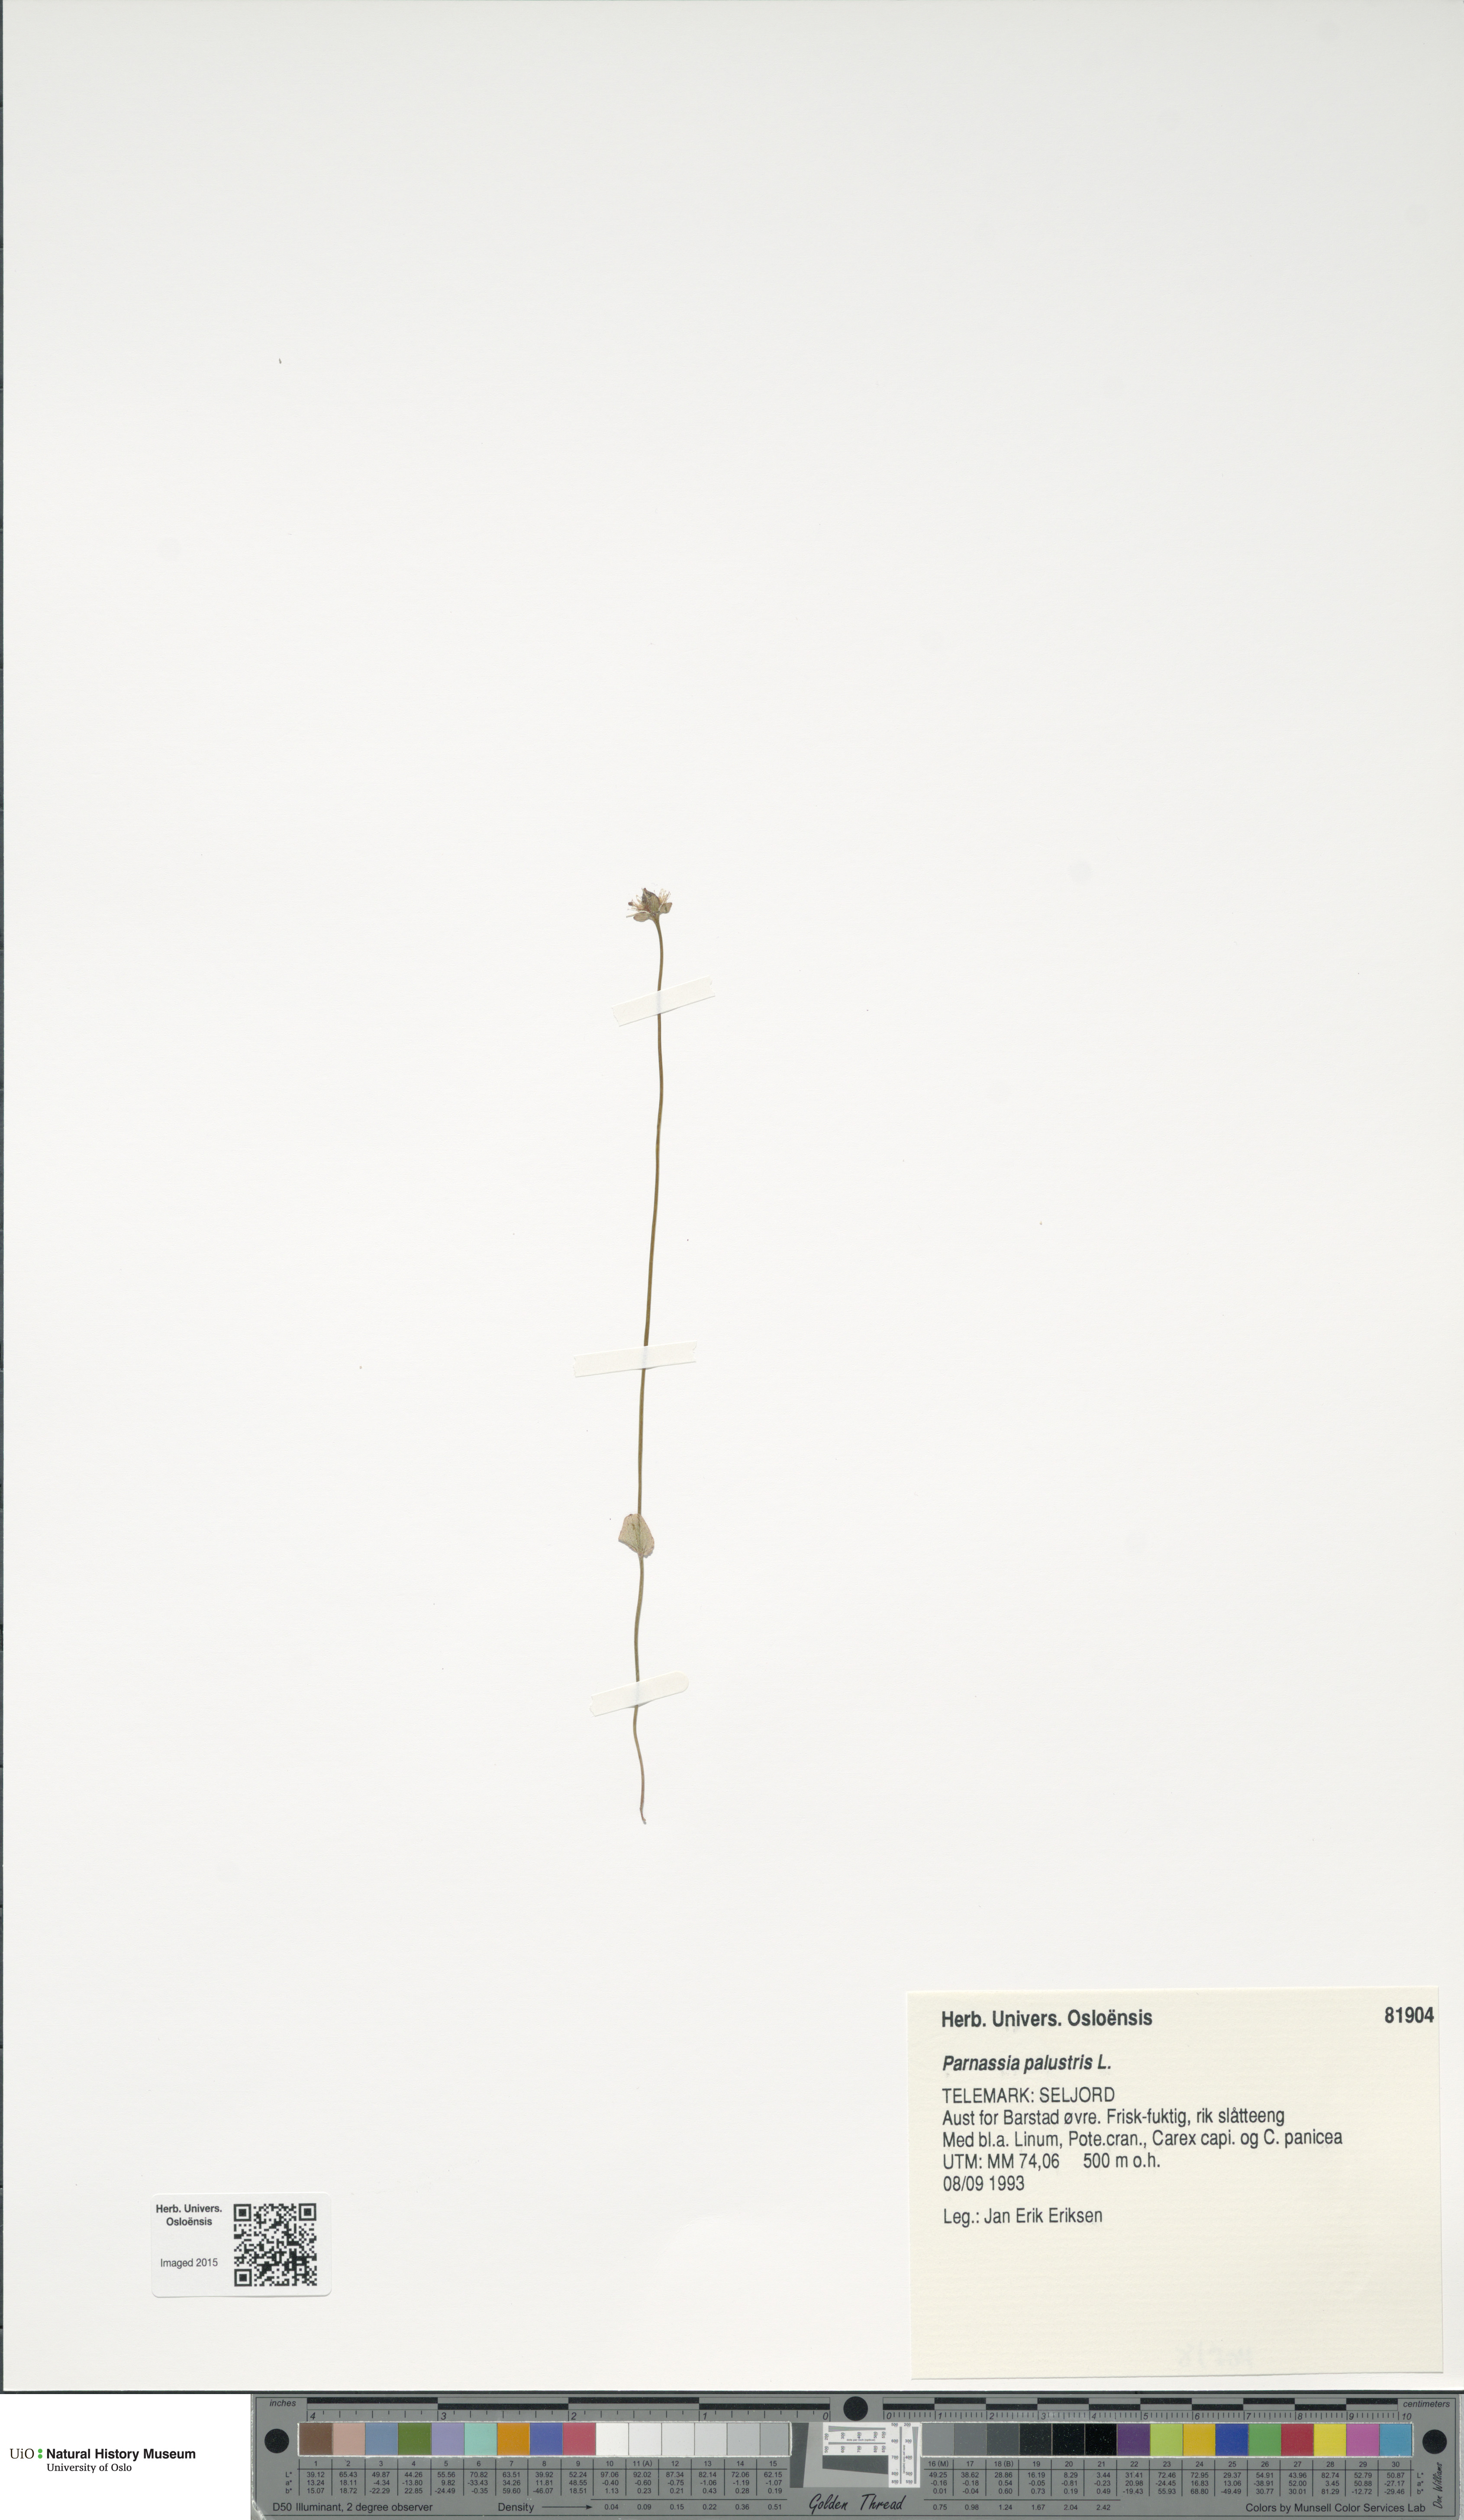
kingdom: Plantae
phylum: Tracheophyta
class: Magnoliopsida
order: Celastrales
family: Parnassiaceae
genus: Parnassia
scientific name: Parnassia palustris
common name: Grass-of-parnassus
